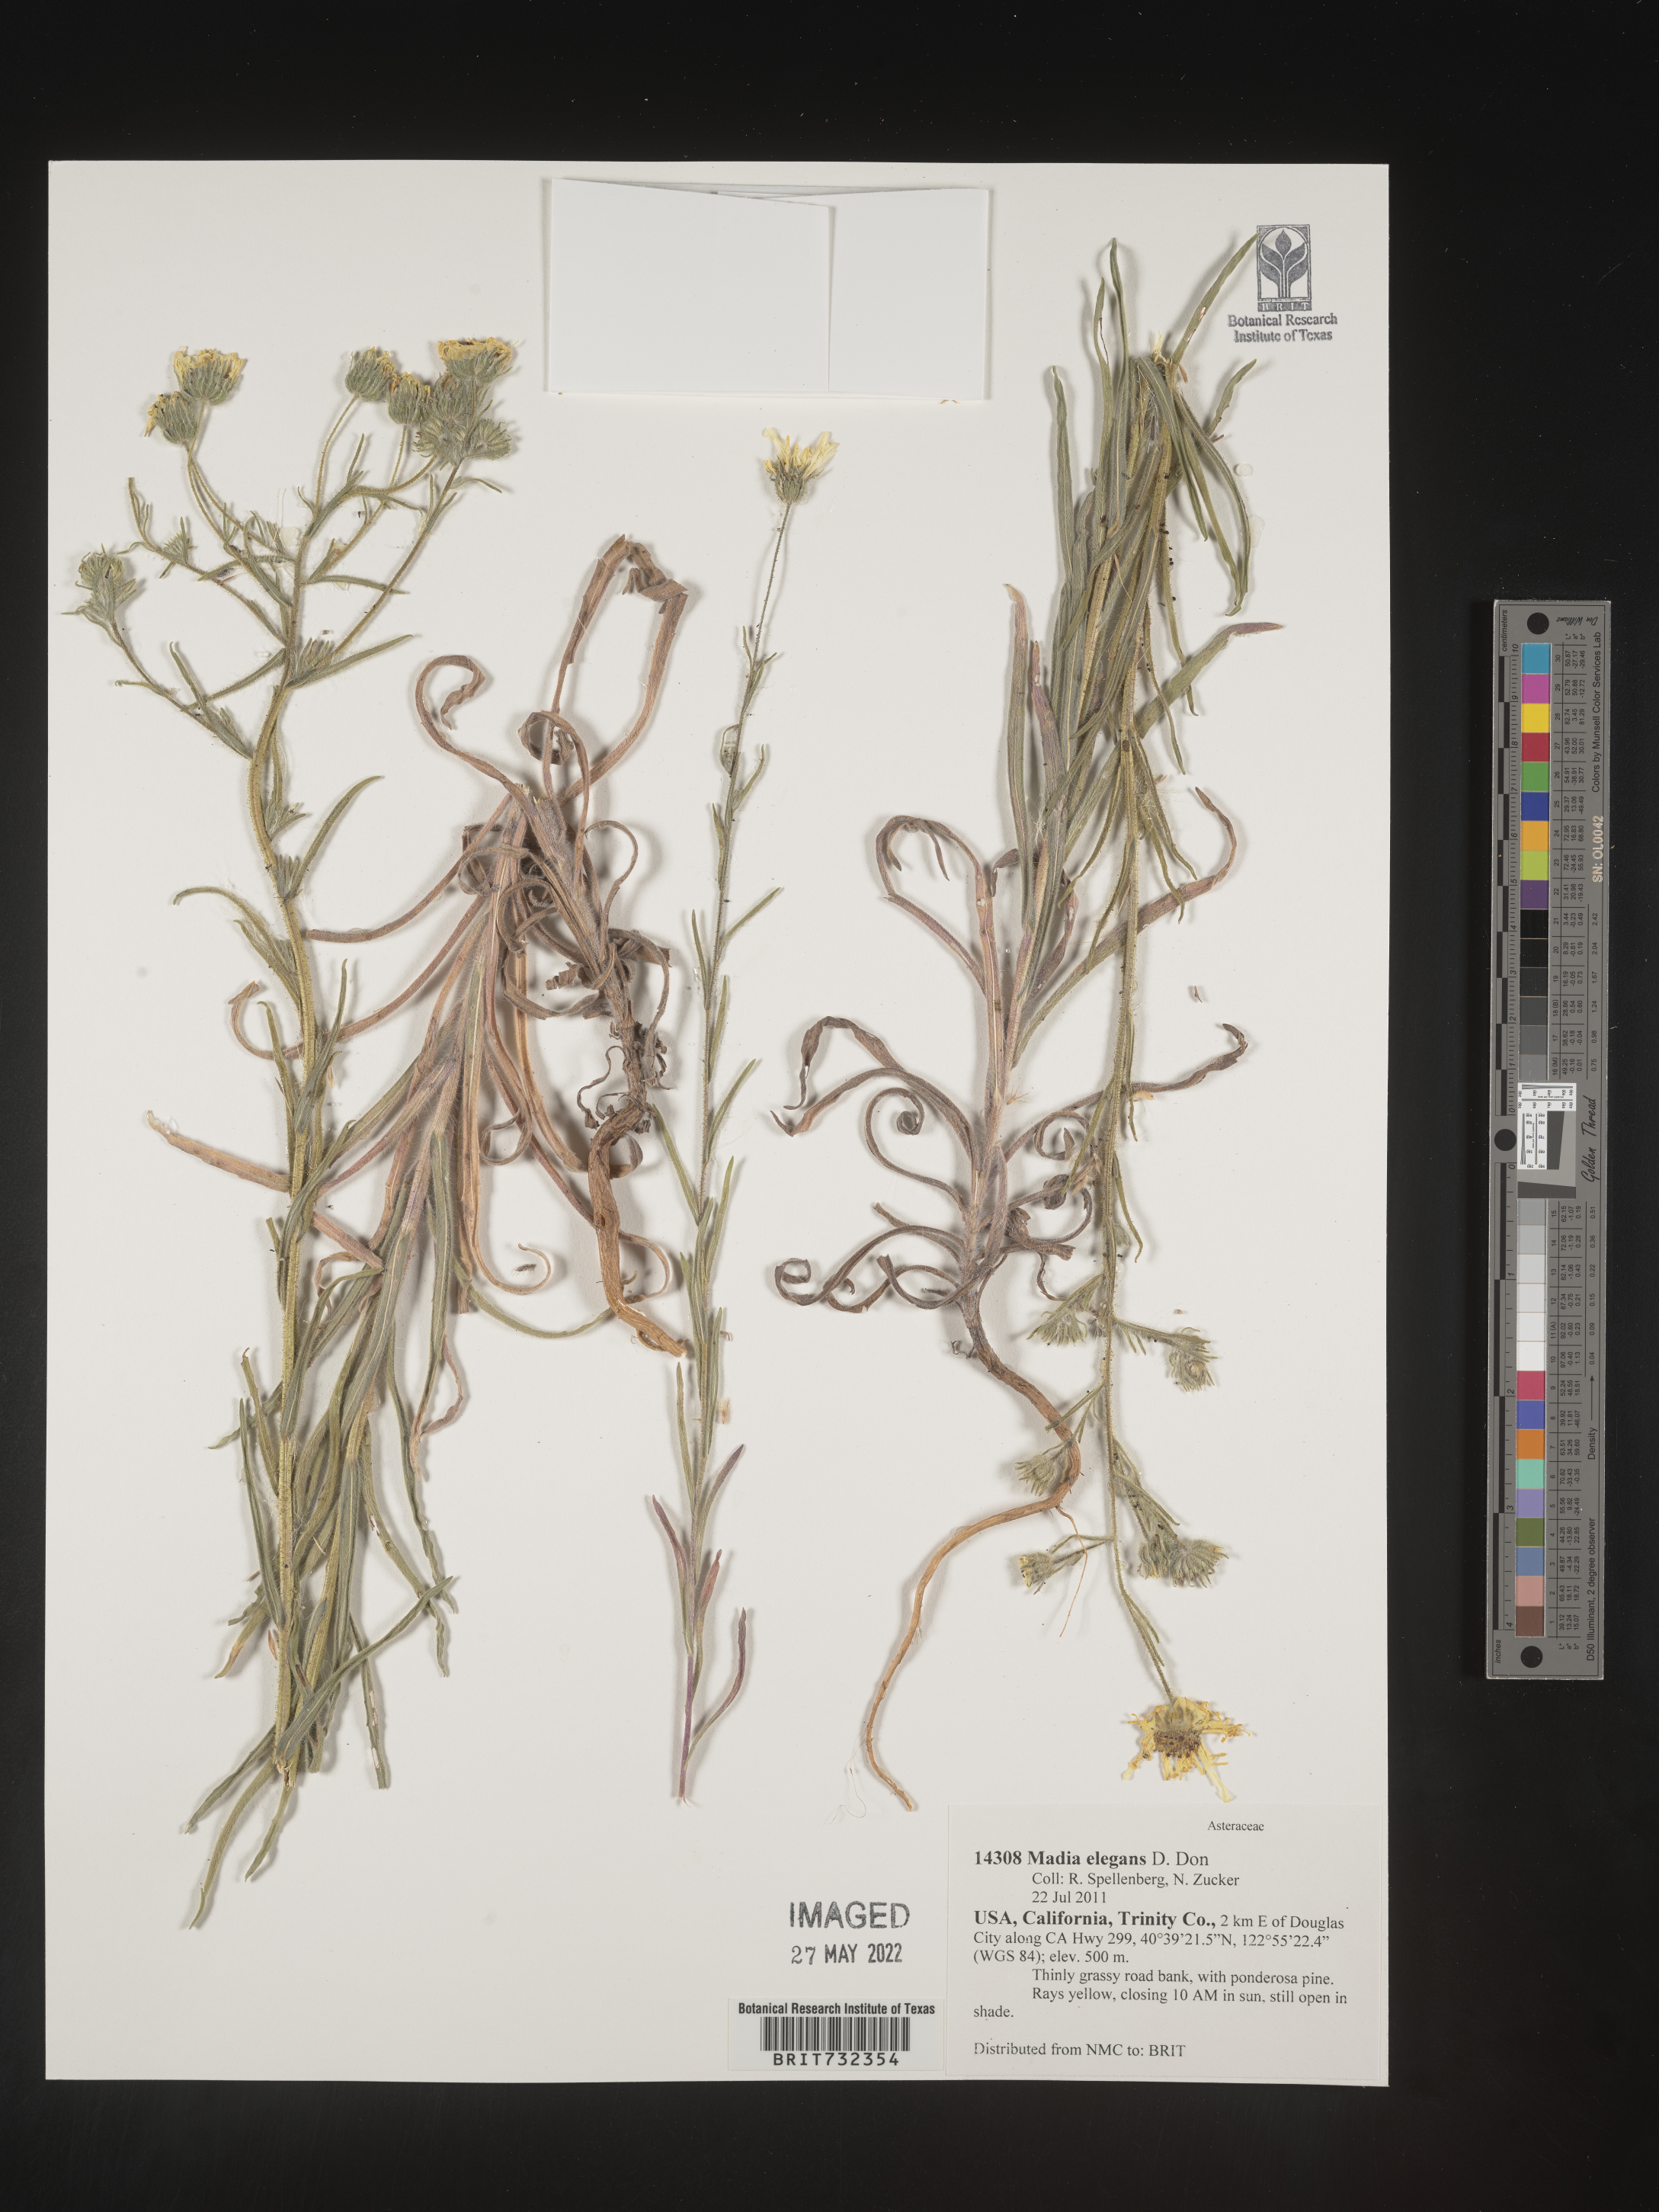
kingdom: Plantae
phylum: Tracheophyta
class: Magnoliopsida
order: Asterales
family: Asteraceae
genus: Madia
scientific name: Madia
